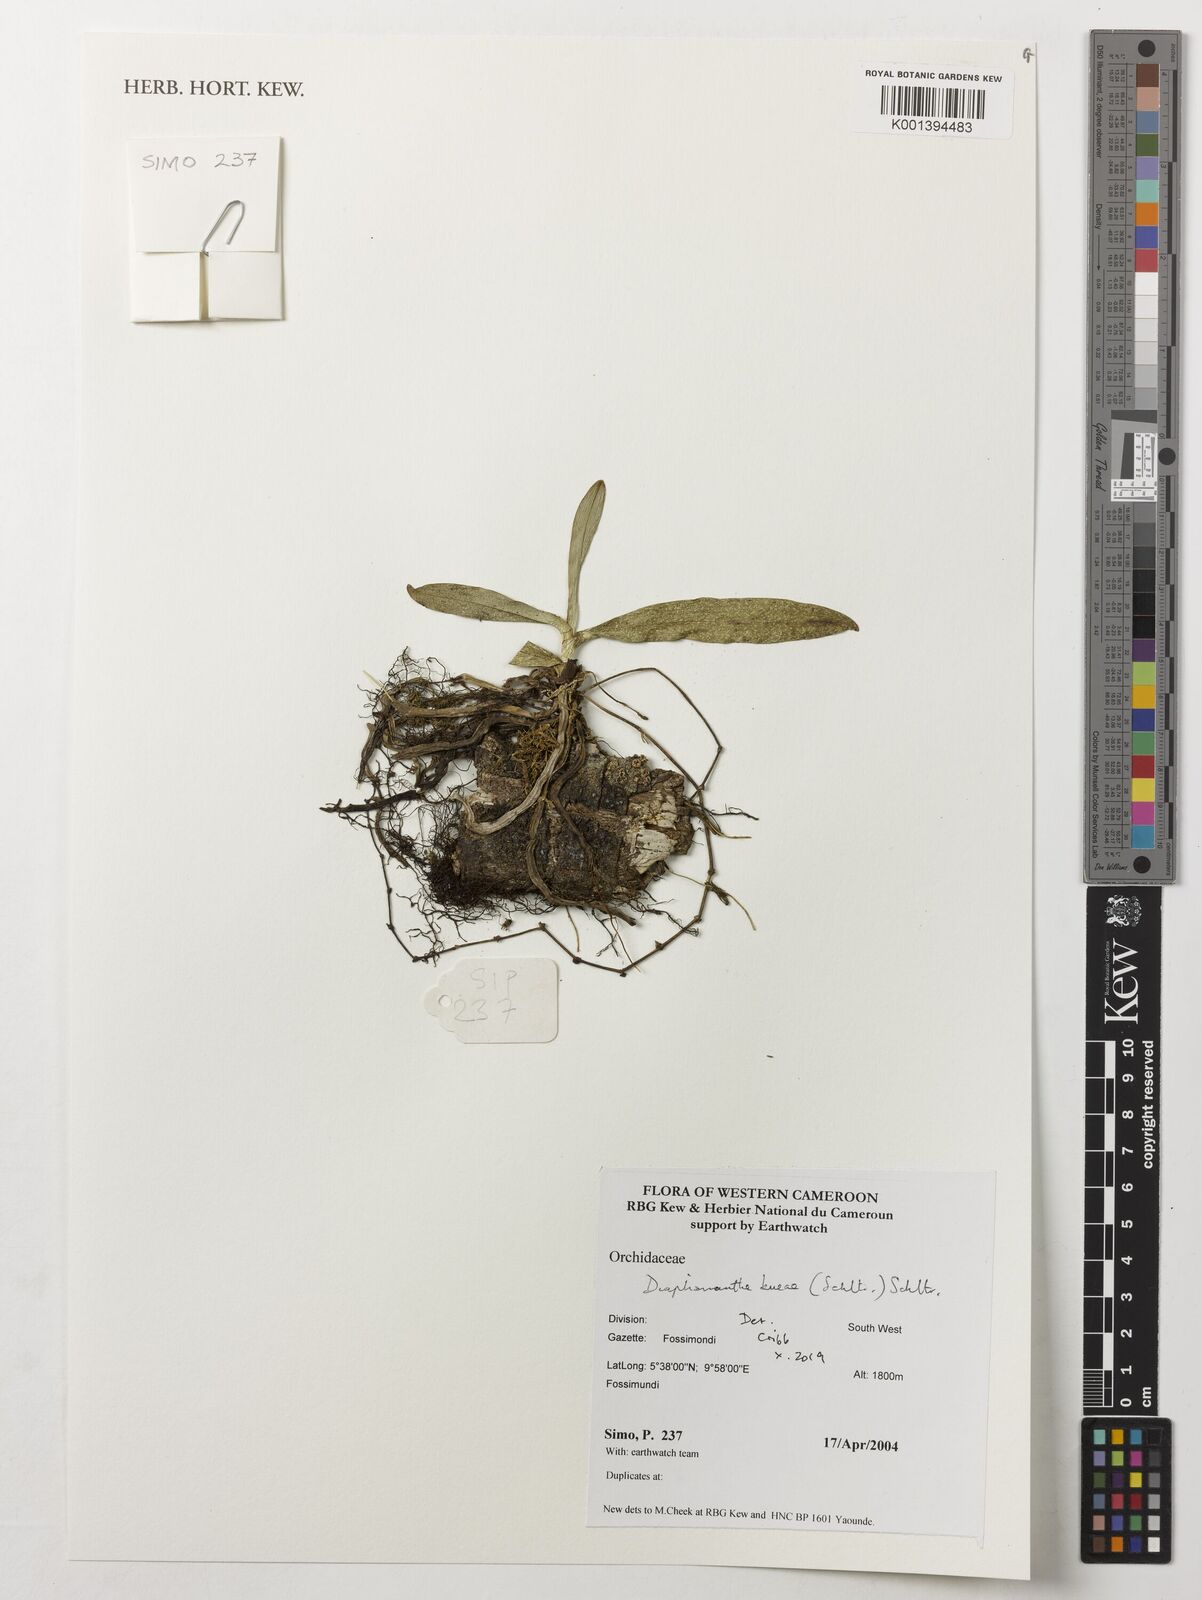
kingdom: Plantae
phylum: Tracheophyta
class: Liliopsida
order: Asparagales
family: Orchidaceae
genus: Kylicanthe
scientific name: Kylicanthe bueae
